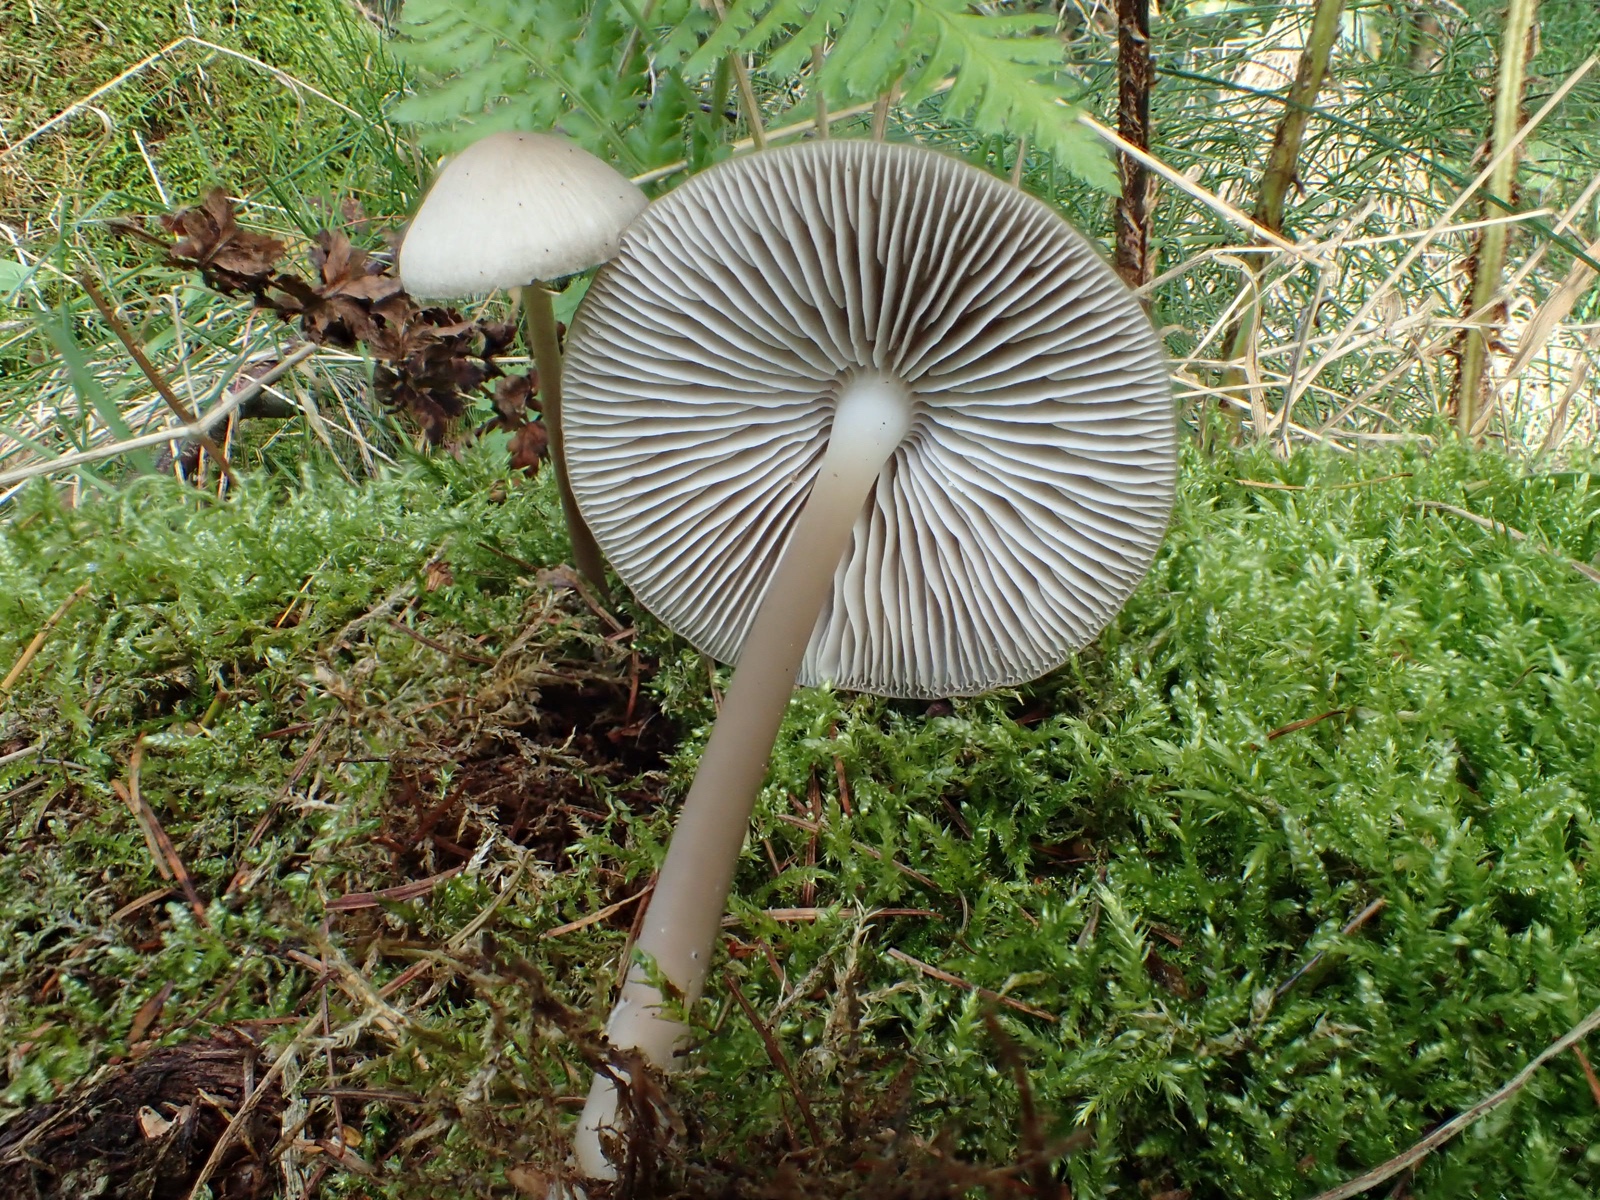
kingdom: Fungi
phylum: Basidiomycota
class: Agaricomycetes
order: Agaricales
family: Mycenaceae
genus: Mycena
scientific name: Mycena galericulata
